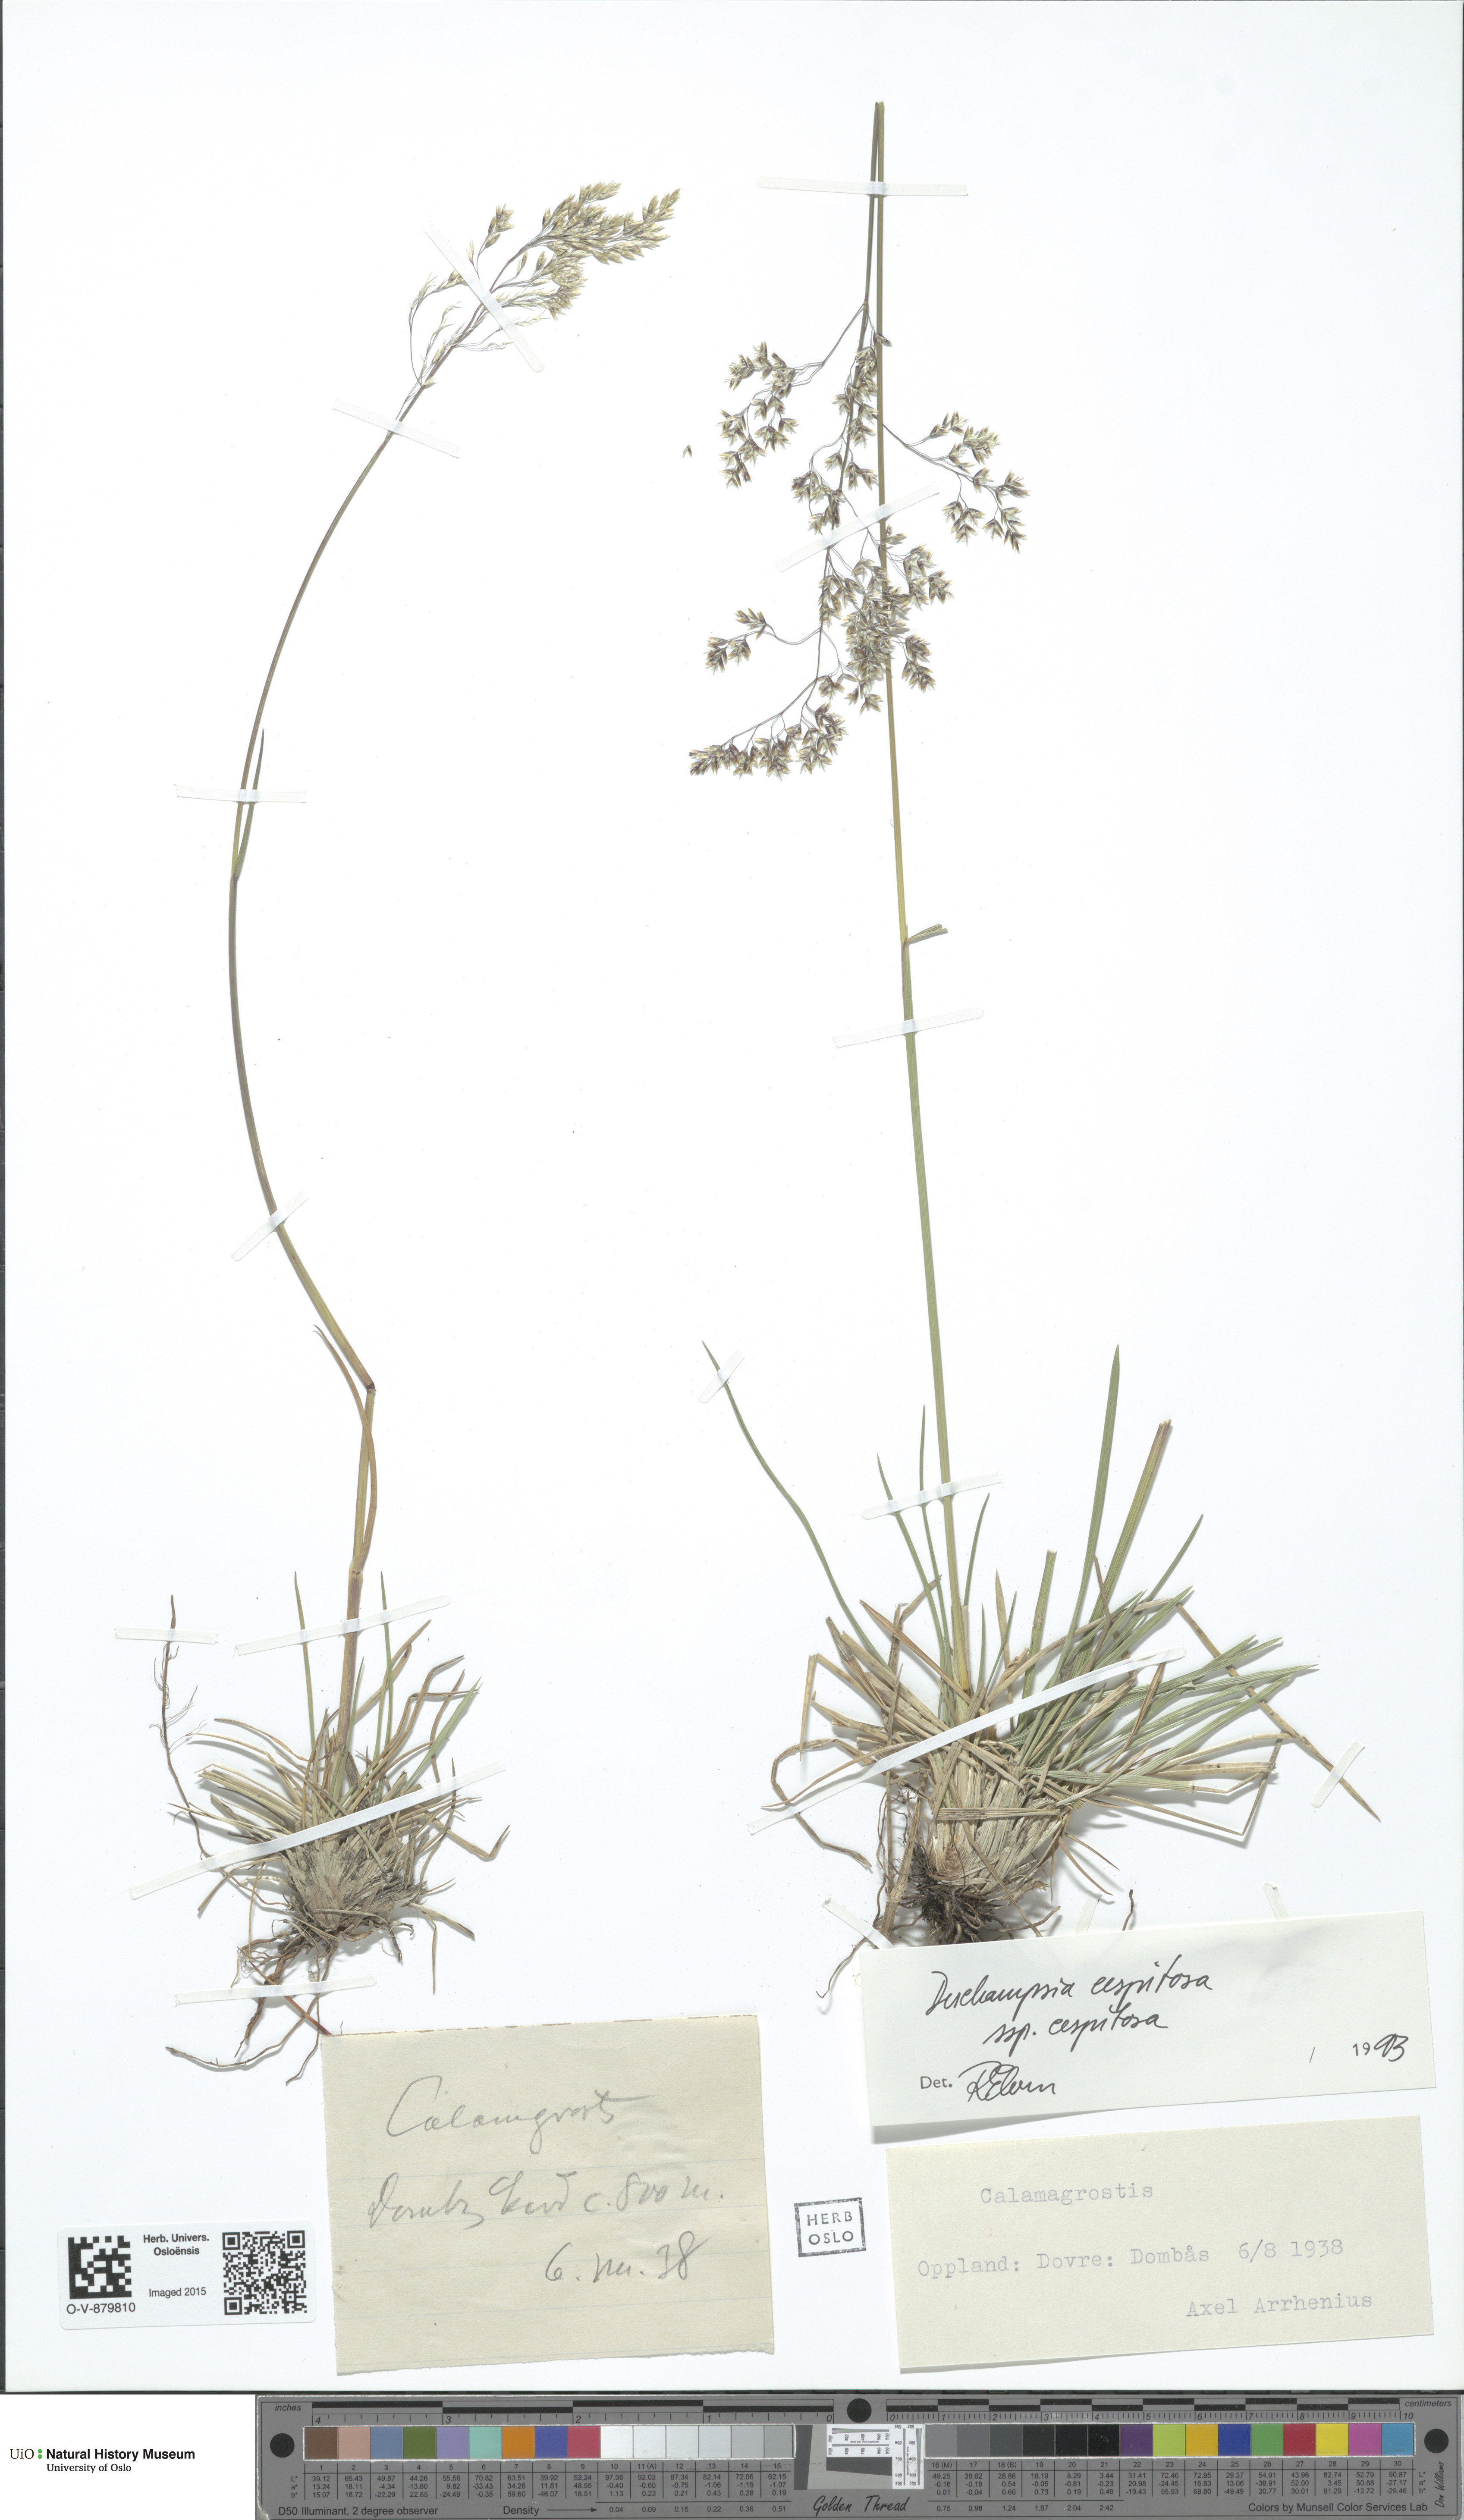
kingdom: Plantae
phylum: Tracheophyta
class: Liliopsida
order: Poales
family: Poaceae
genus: Deschampsia
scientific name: Deschampsia cespitosa
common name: Tufted hair-grass
